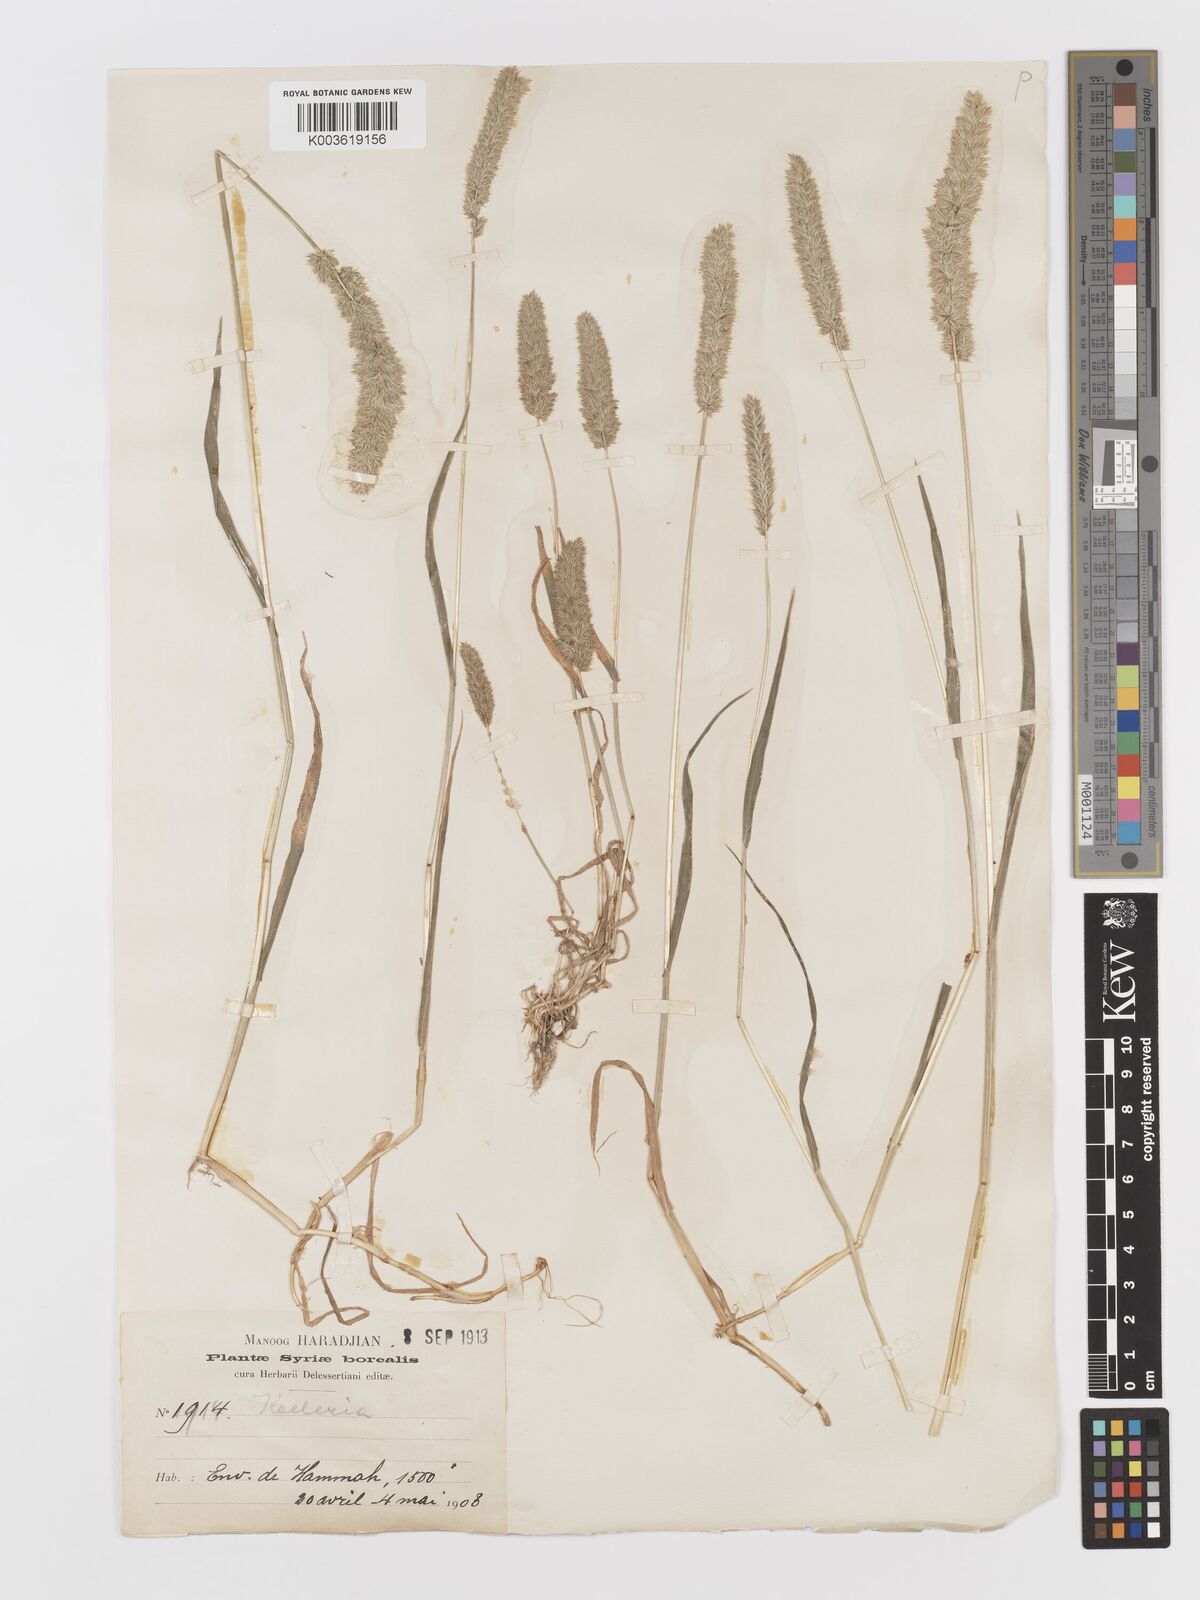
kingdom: Plantae
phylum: Tracheophyta
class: Liliopsida
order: Poales
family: Poaceae
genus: Rostraria
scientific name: Rostraria
